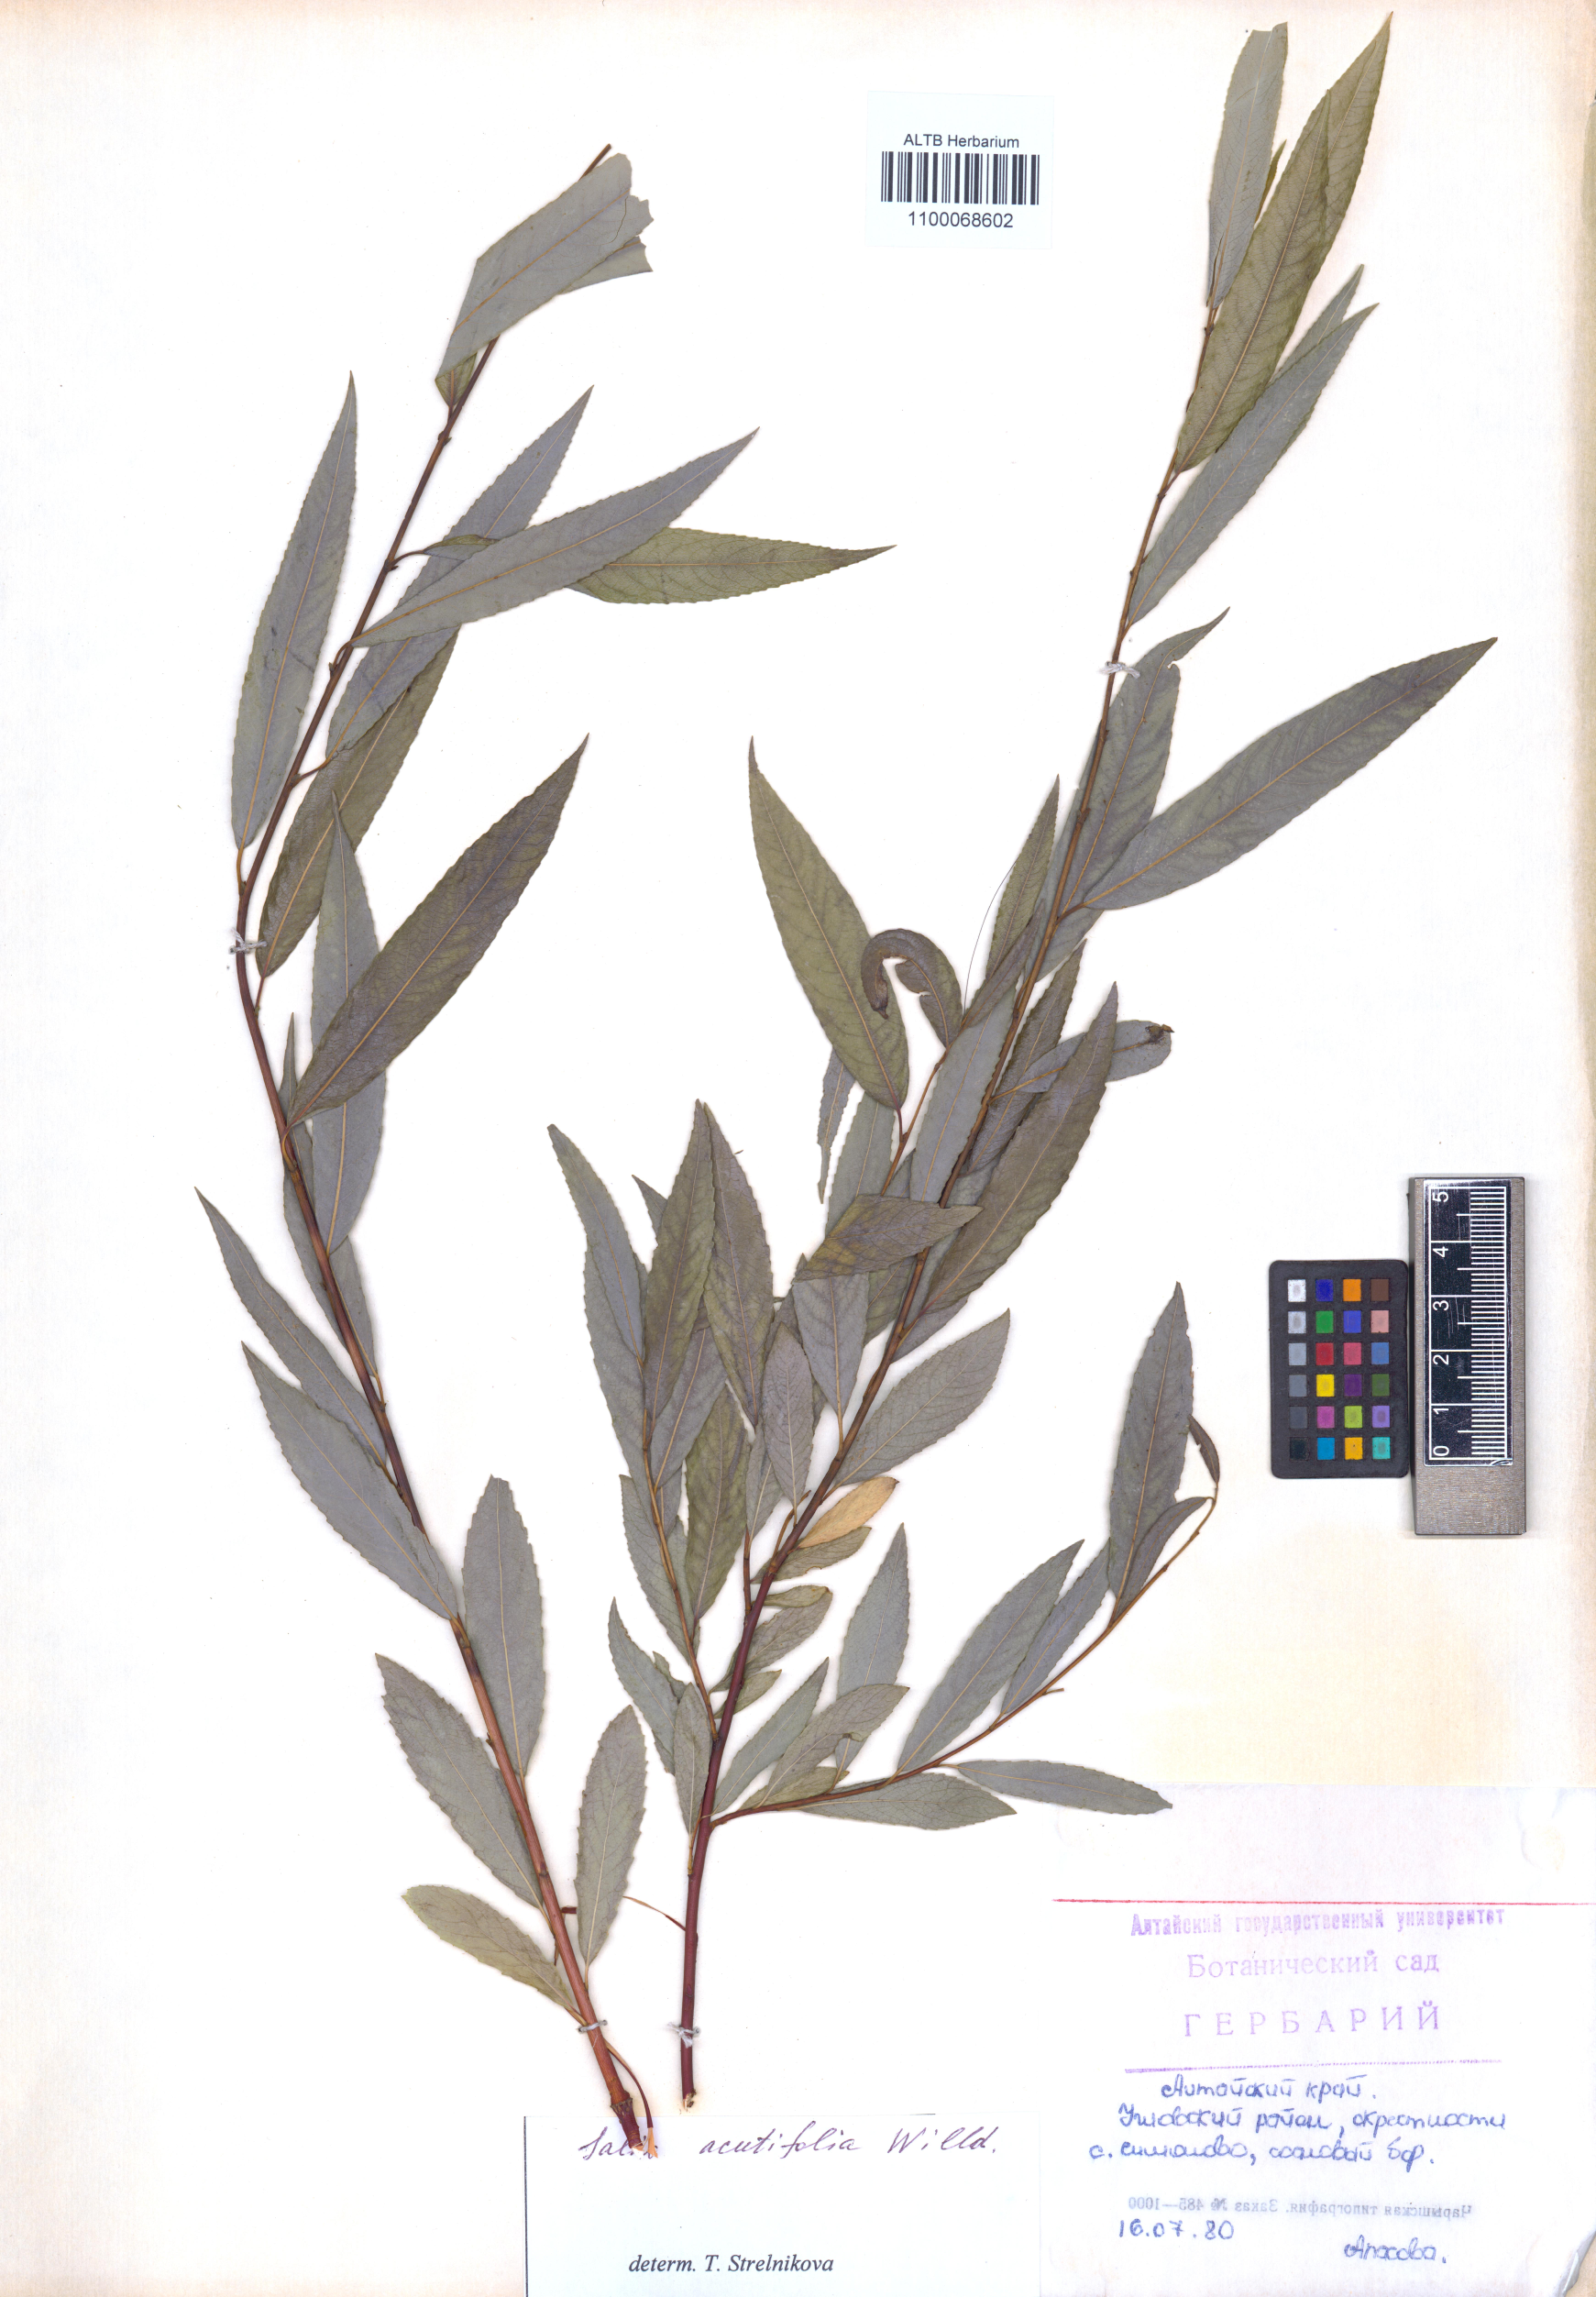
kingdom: Plantae
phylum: Tracheophyta
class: Magnoliopsida
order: Malpighiales
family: Salicaceae
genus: Salix
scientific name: Salix acutifolia
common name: Siberian violet-willow
